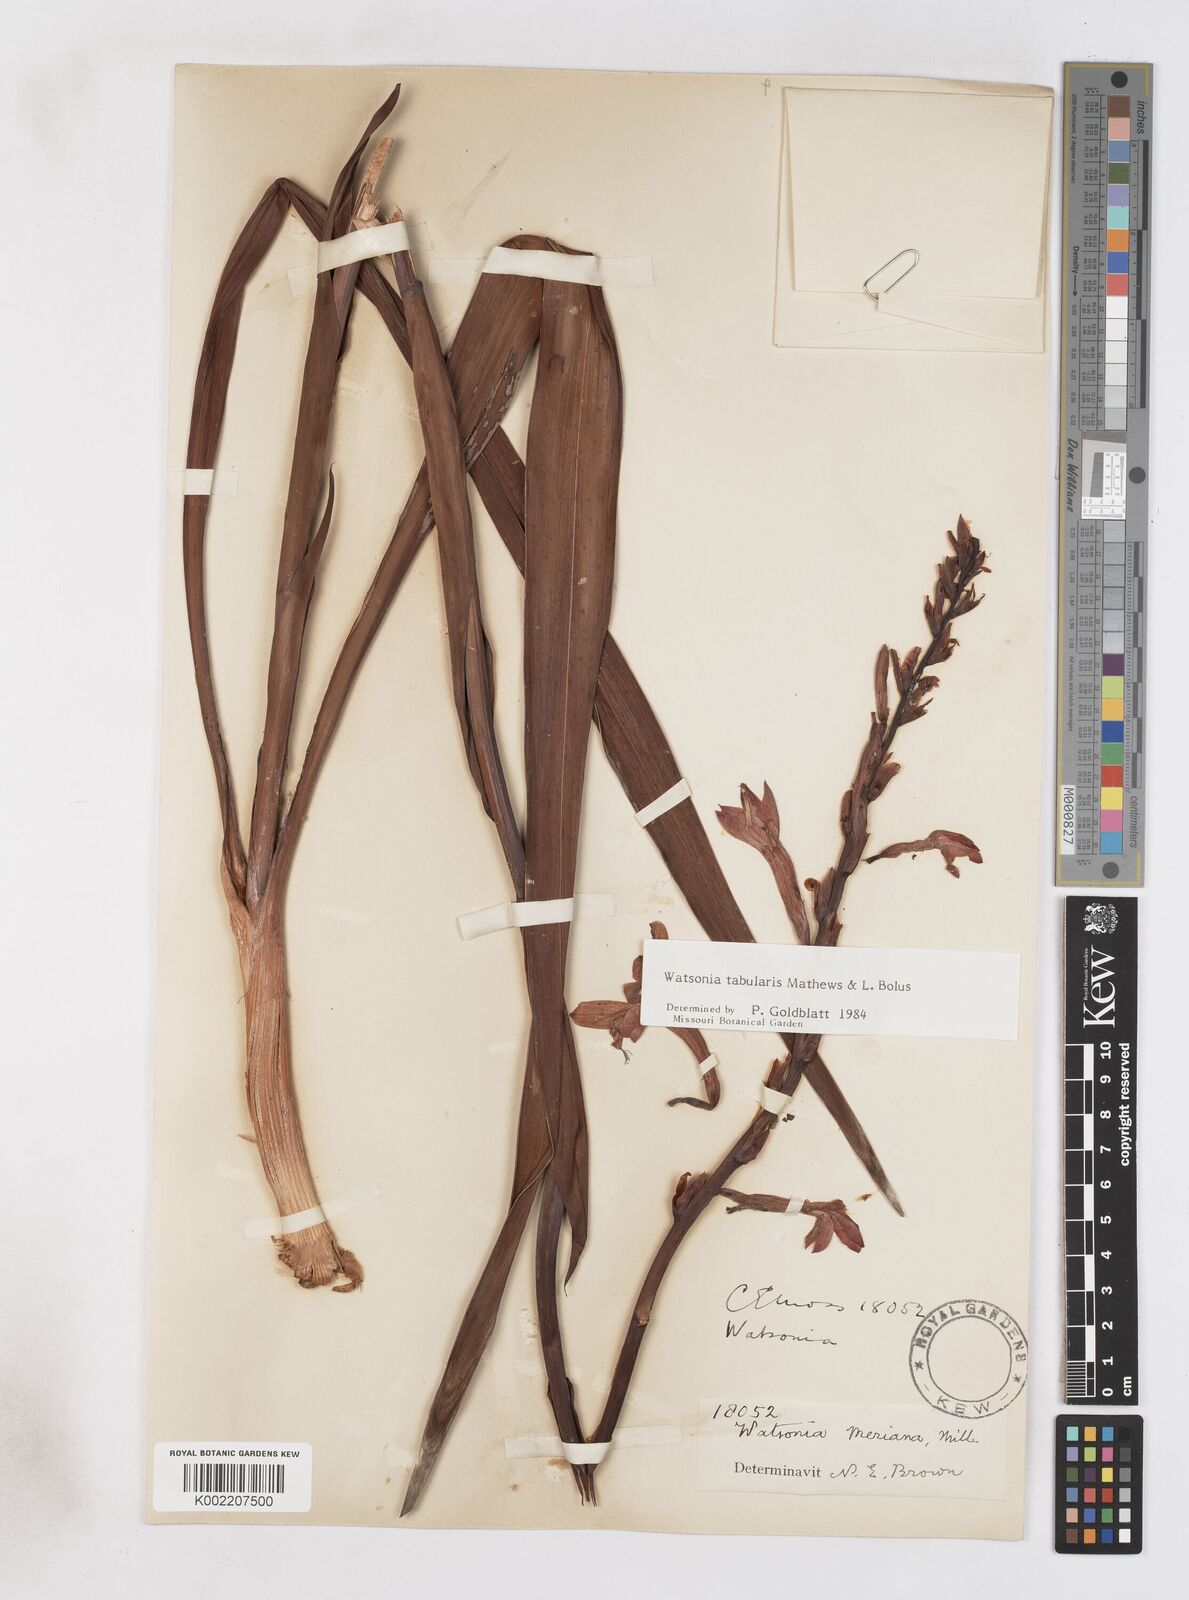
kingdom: Plantae
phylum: Tracheophyta
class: Liliopsida
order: Asparagales
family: Iridaceae
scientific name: Iridaceae
